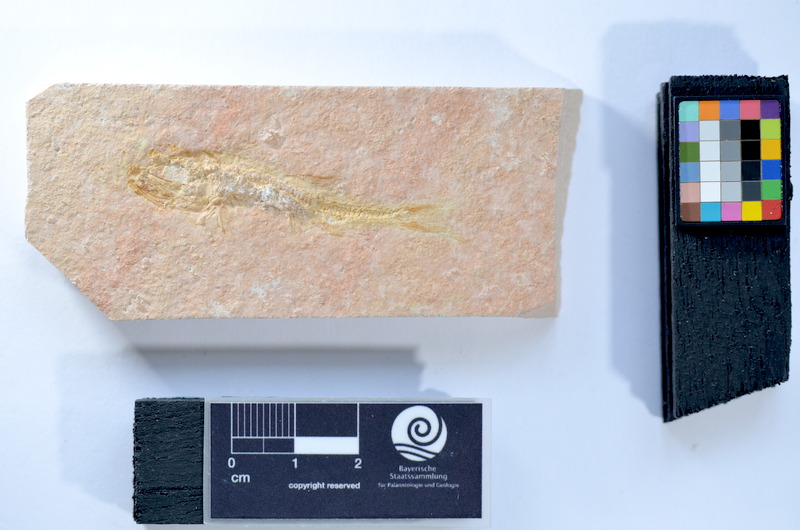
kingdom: Animalia
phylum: Chordata
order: Salmoniformes
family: Orthogonikleithridae
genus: Leptolepides
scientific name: Leptolepides
